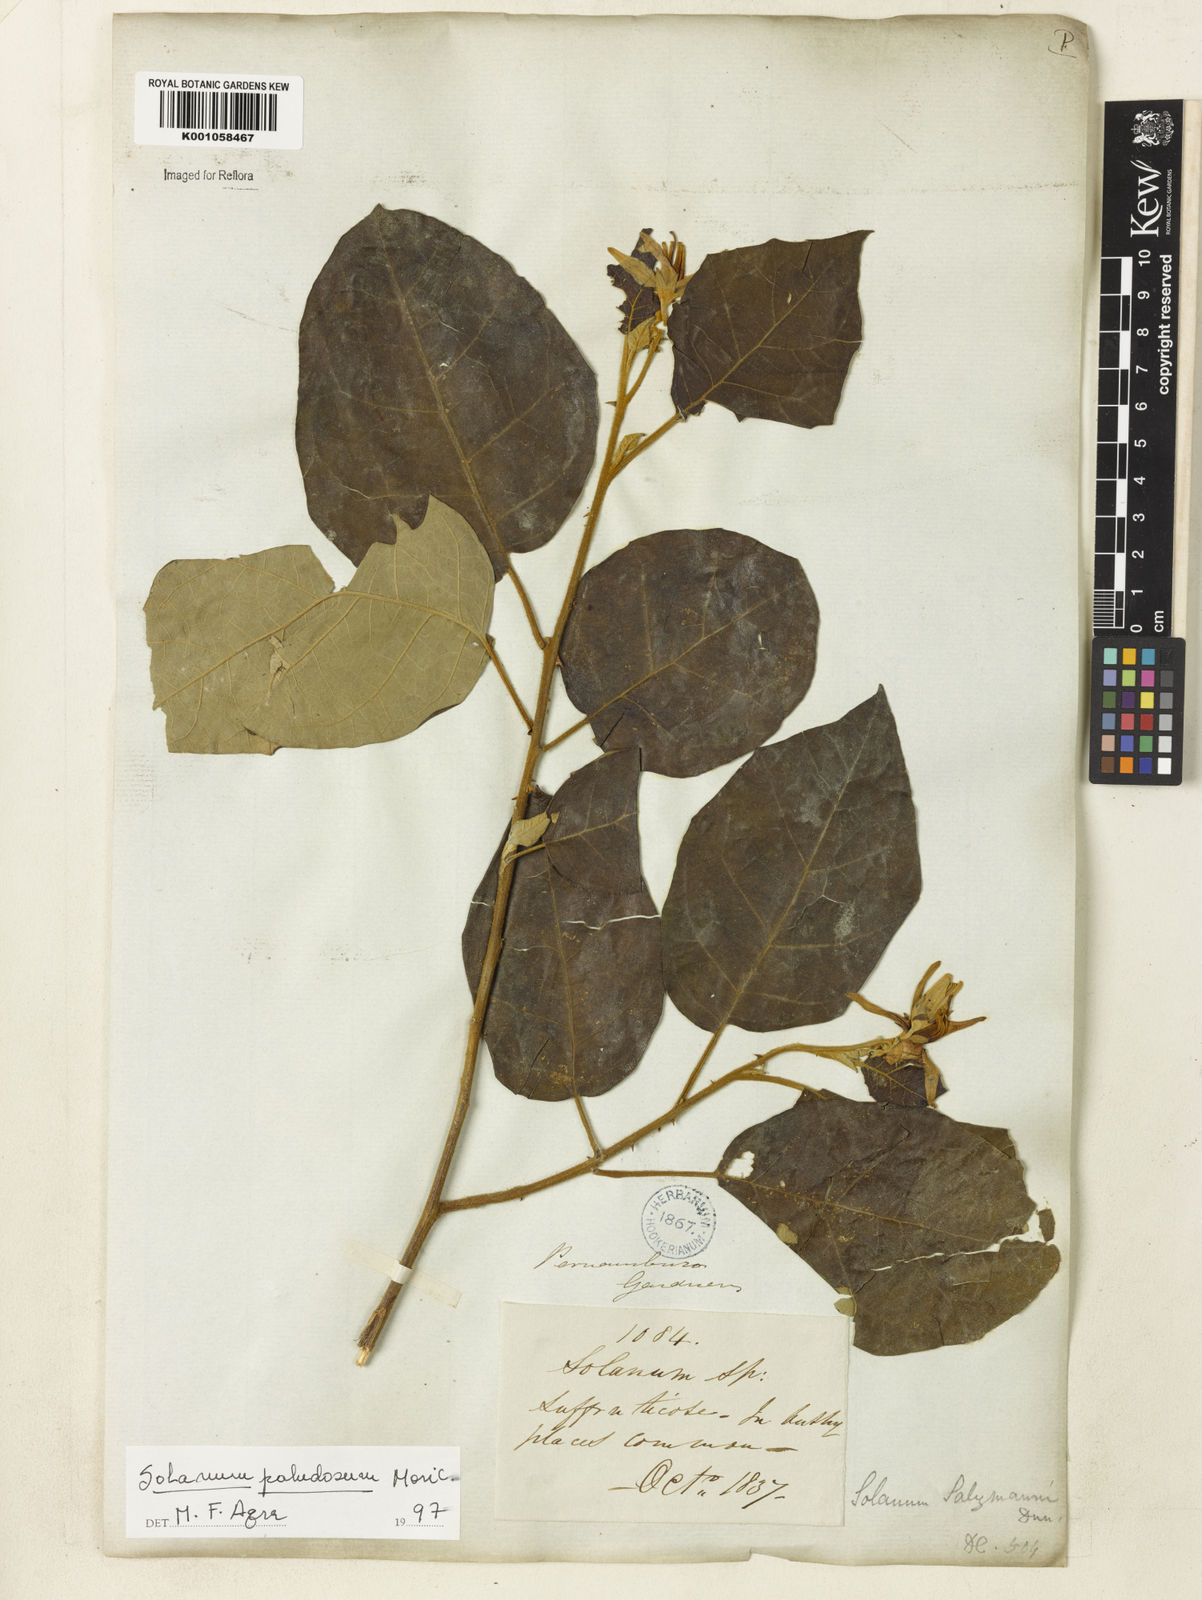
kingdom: Plantae
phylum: Tracheophyta
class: Magnoliopsida
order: Solanales
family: Solanaceae
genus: Solanum
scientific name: Solanum paludosum
